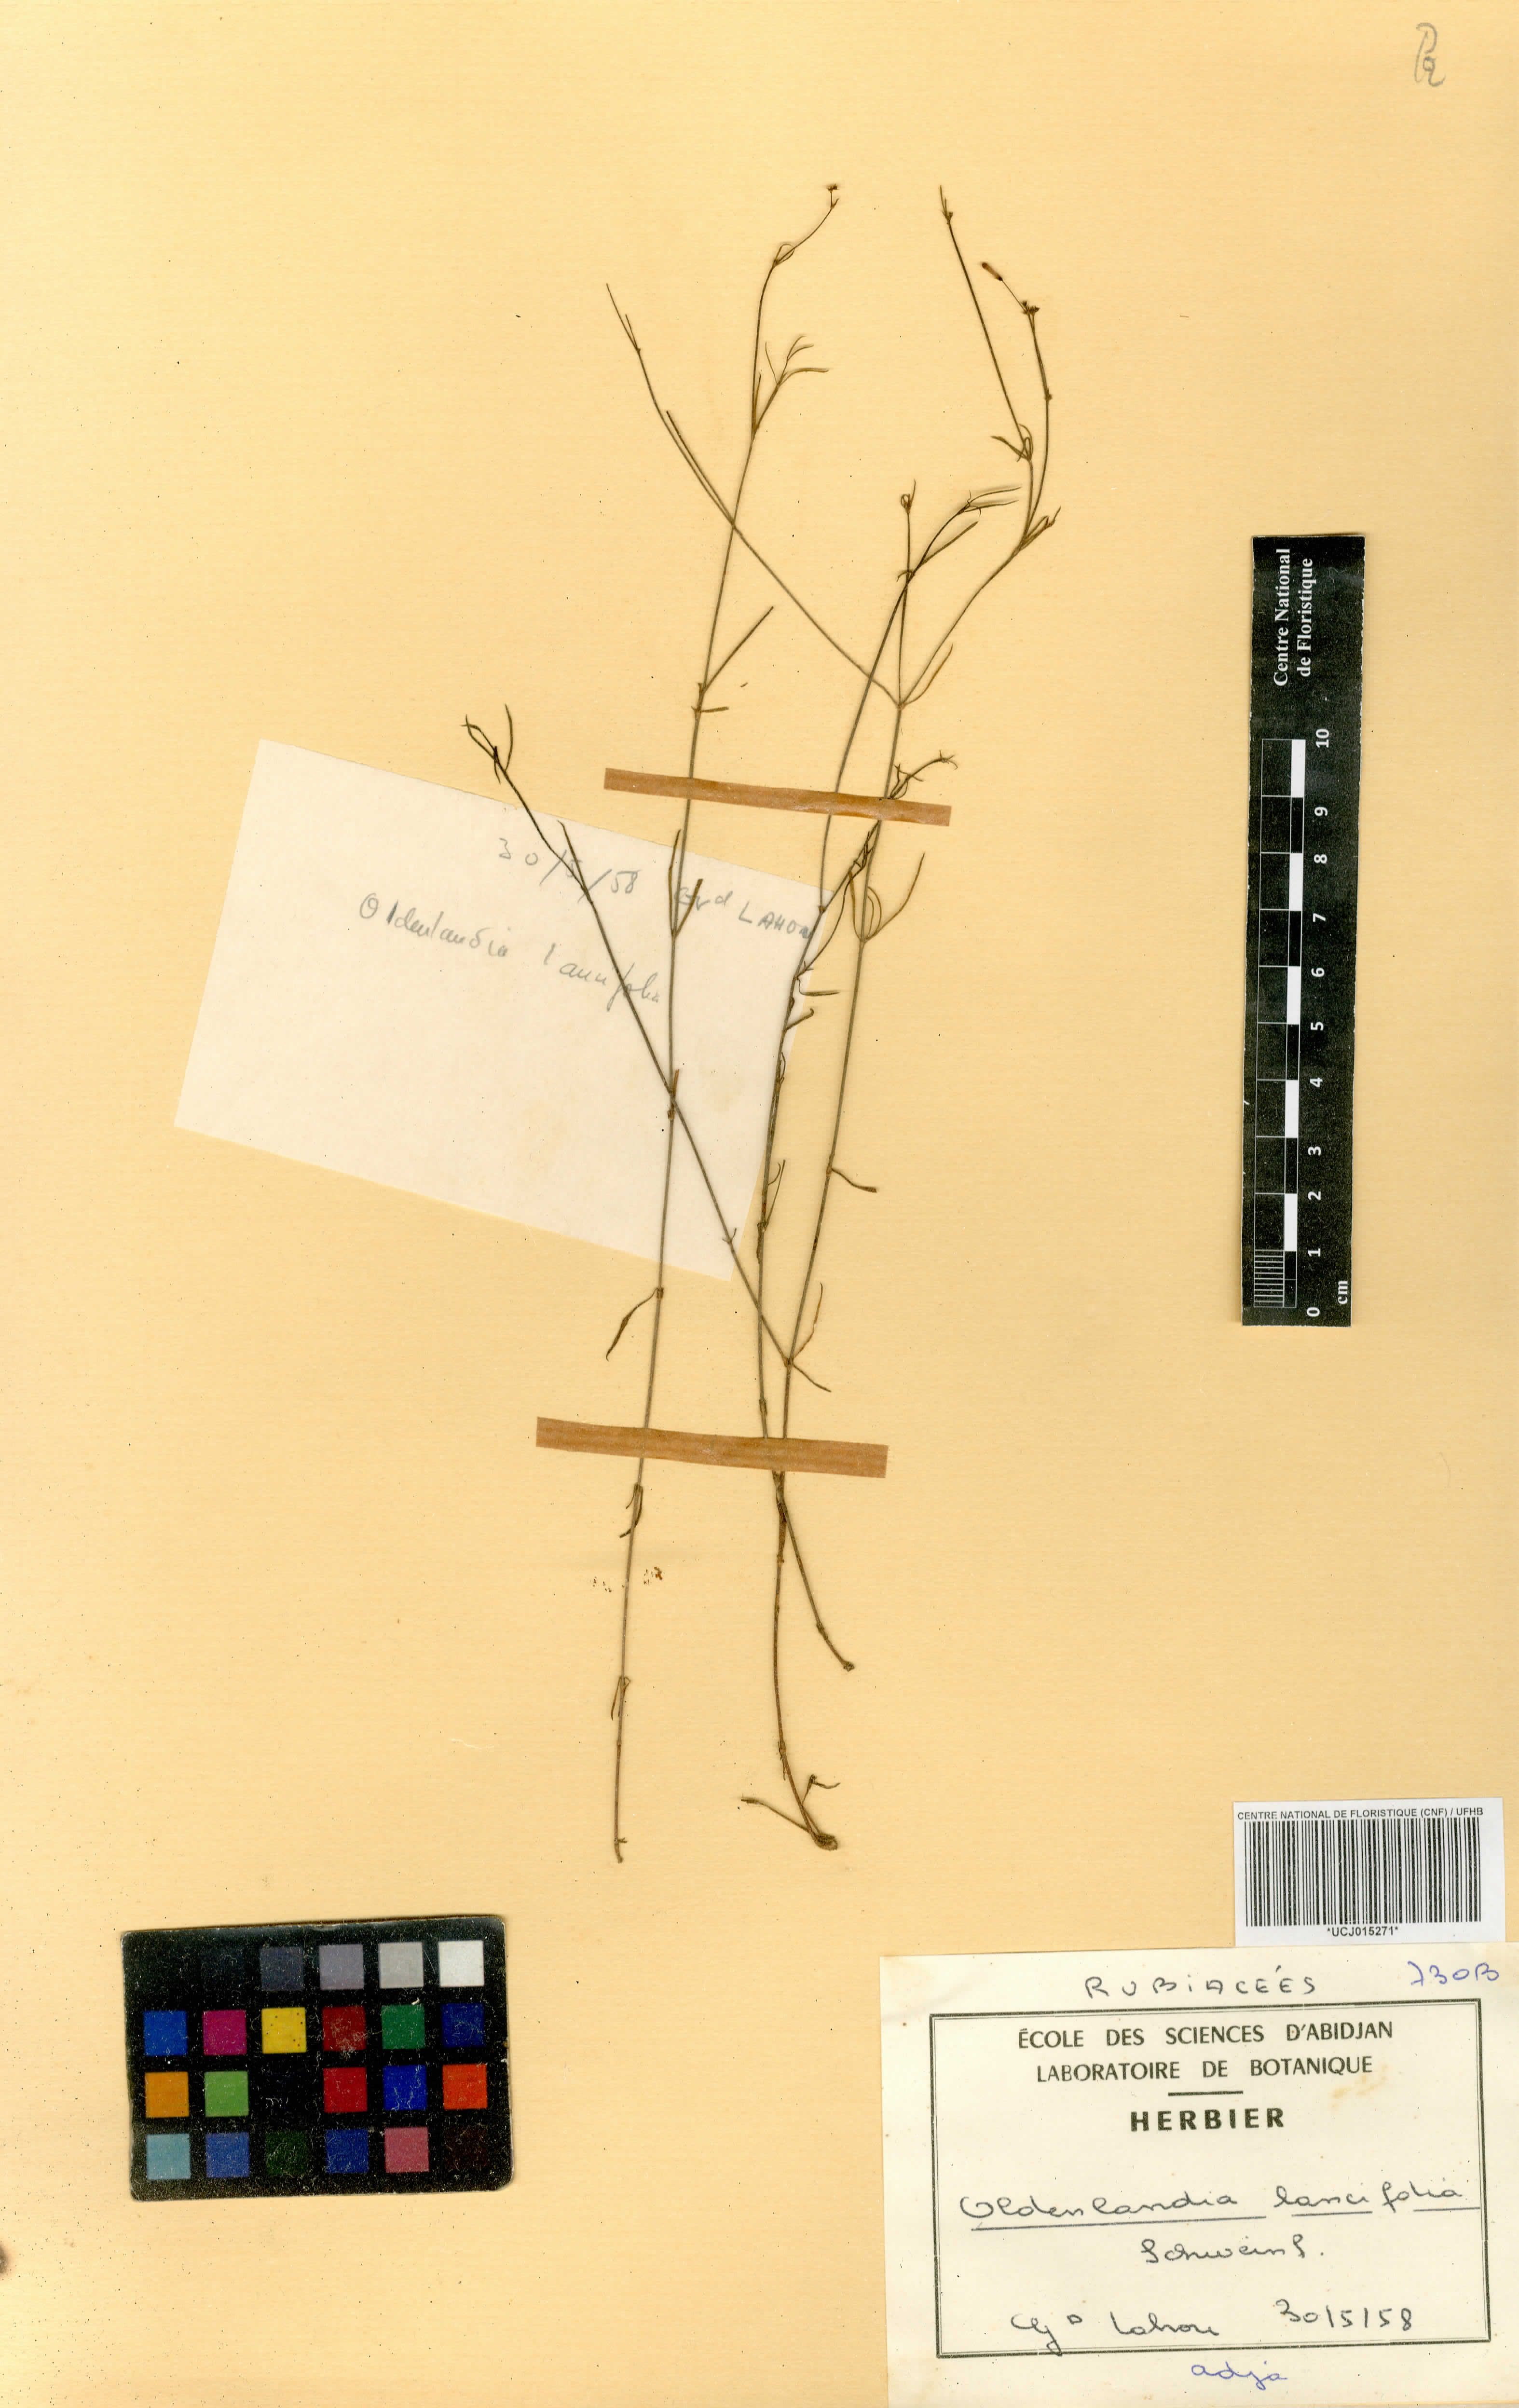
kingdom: Plantae
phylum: Tracheophyta
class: Magnoliopsida
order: Gentianales
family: Rubiaceae
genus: Oldenlandia
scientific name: Oldenlandia lancifolia
